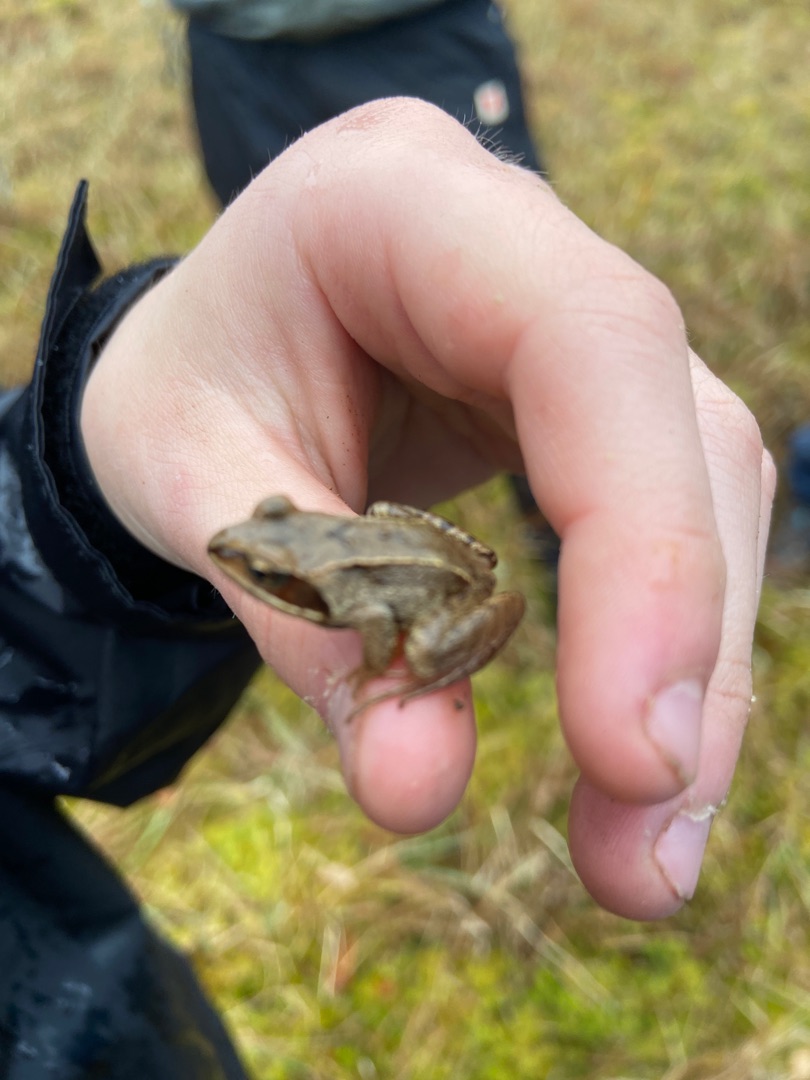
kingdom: Animalia
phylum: Chordata
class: Amphibia
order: Anura
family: Ranidae
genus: Rana
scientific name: Rana temporaria
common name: Butsnudet frø
